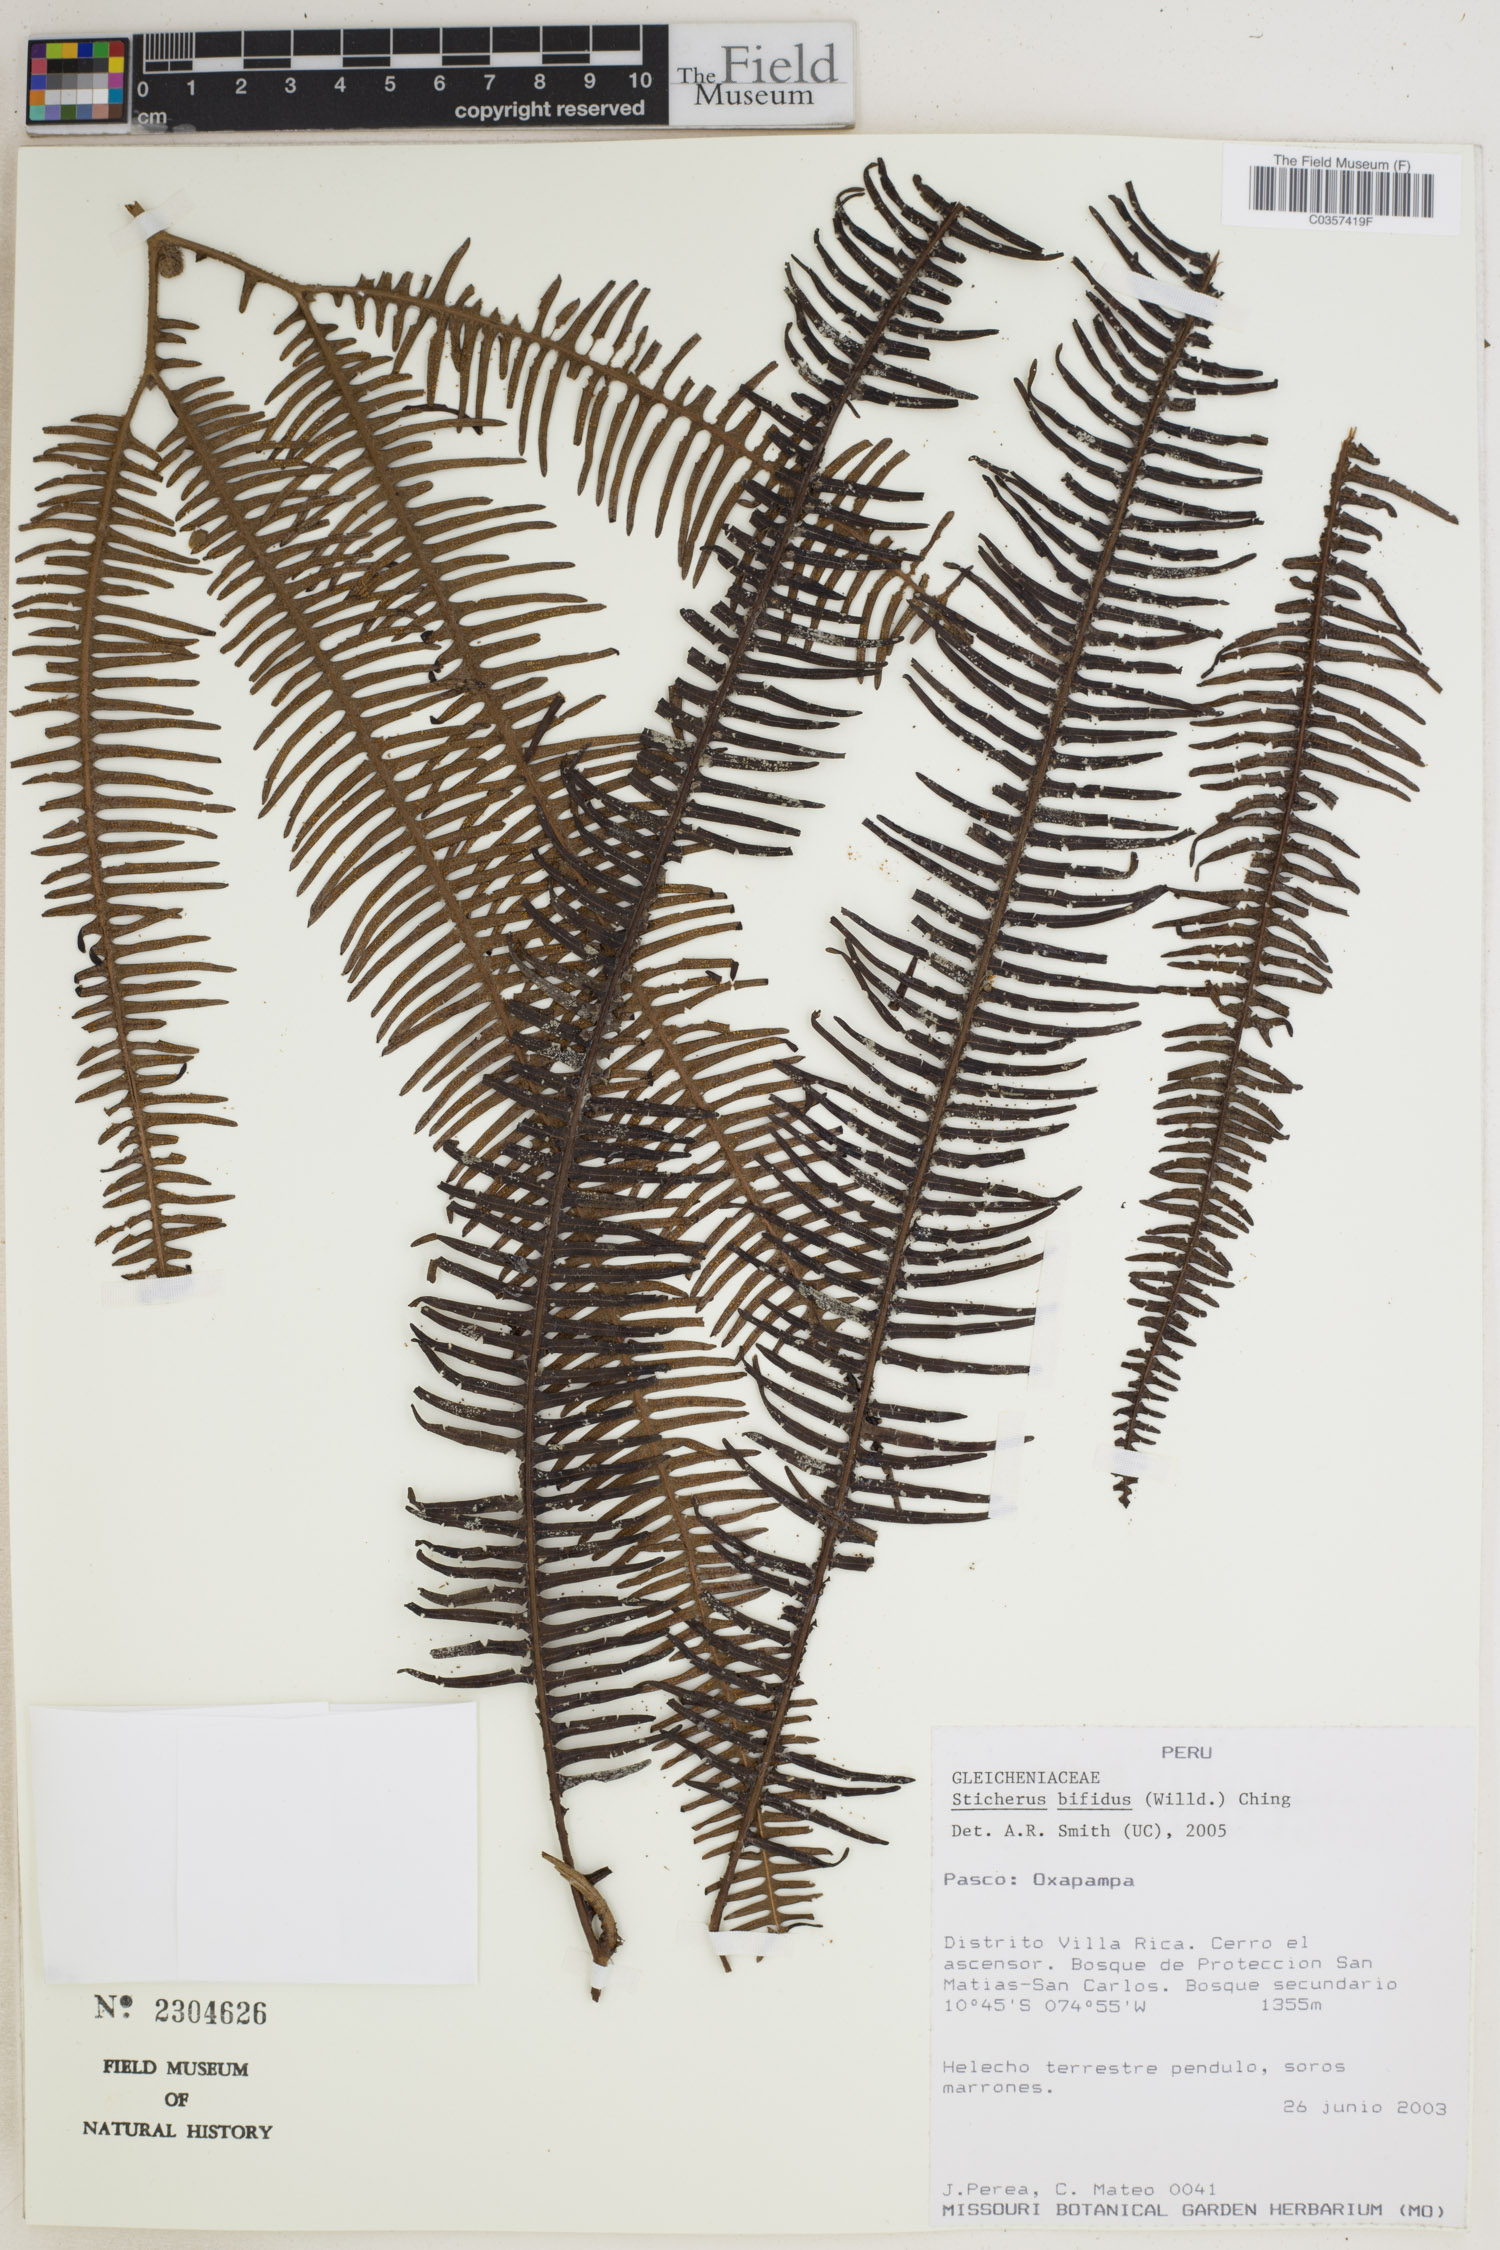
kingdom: Plantae
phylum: Tracheophyta
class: Polypodiopsida
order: Gleicheniales
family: Gleicheniaceae
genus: Sticherus
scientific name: Sticherus bifidus
